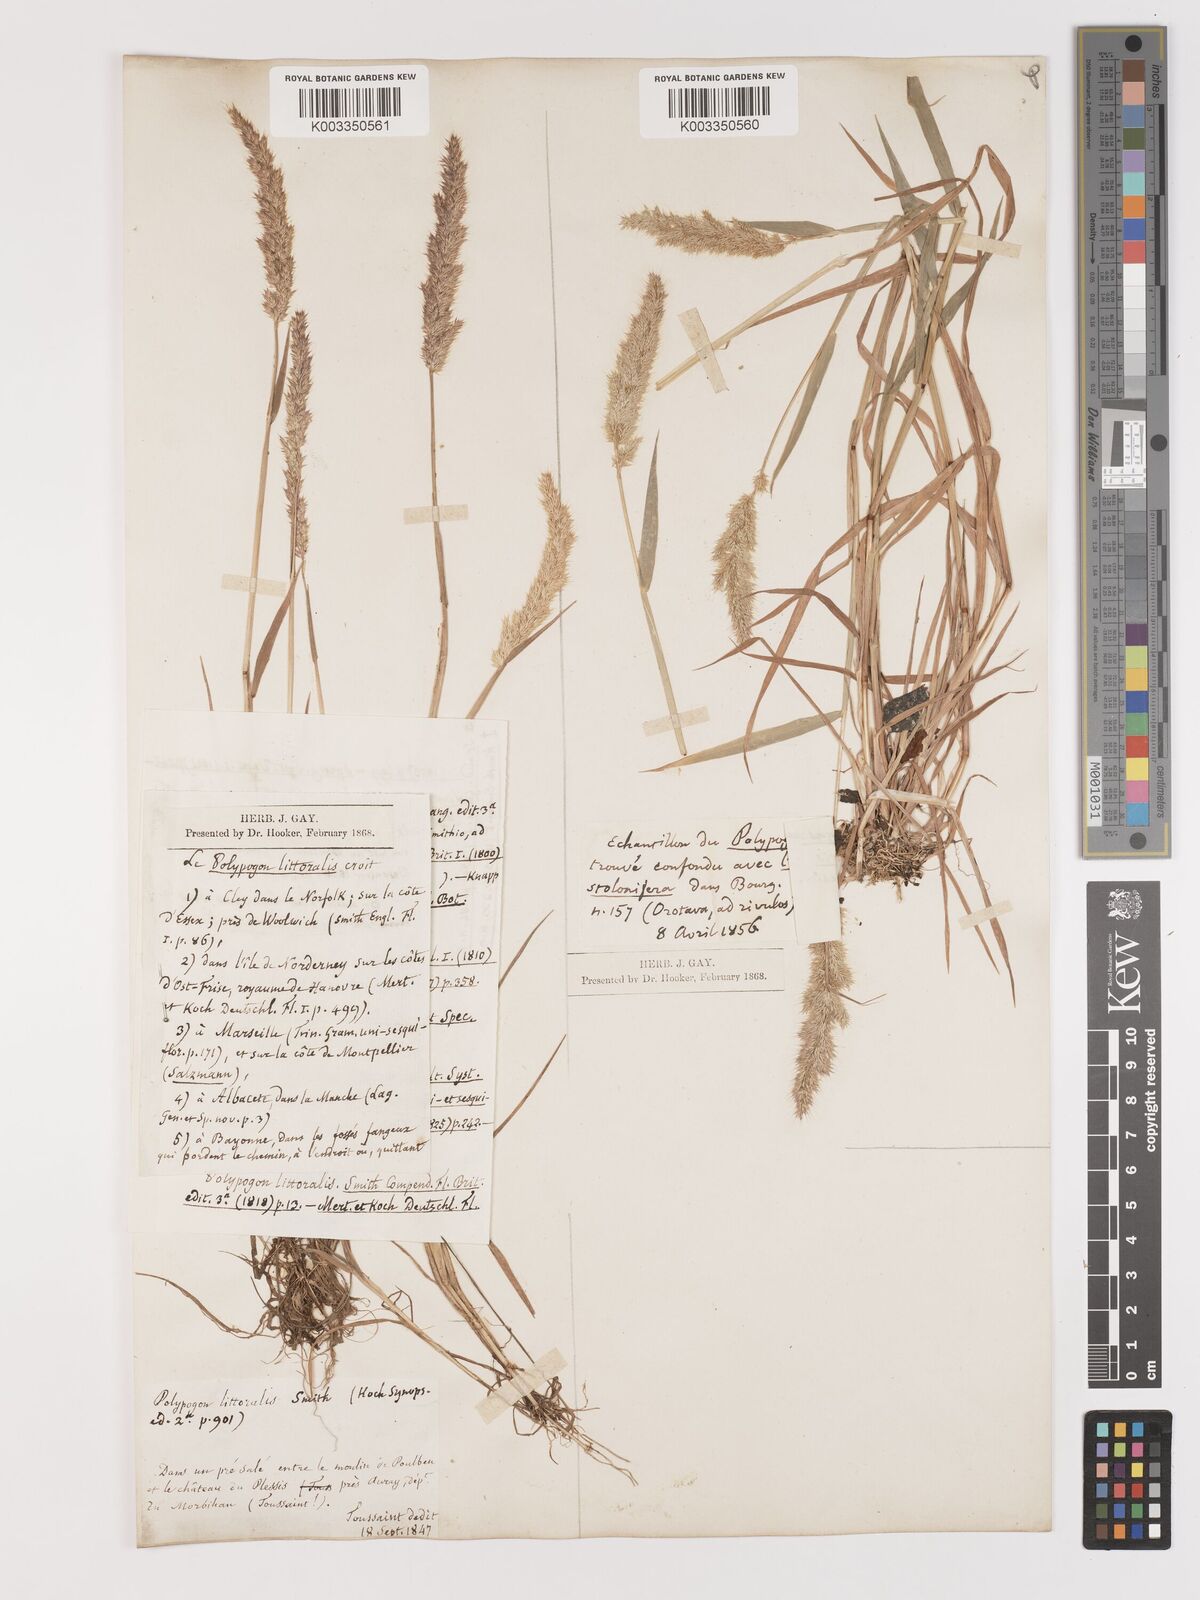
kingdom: Plantae
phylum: Tracheophyta
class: Liliopsida
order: Poales
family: Poaceae
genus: Agropogon
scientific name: Agropogon lutosus
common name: Coast agropogon
